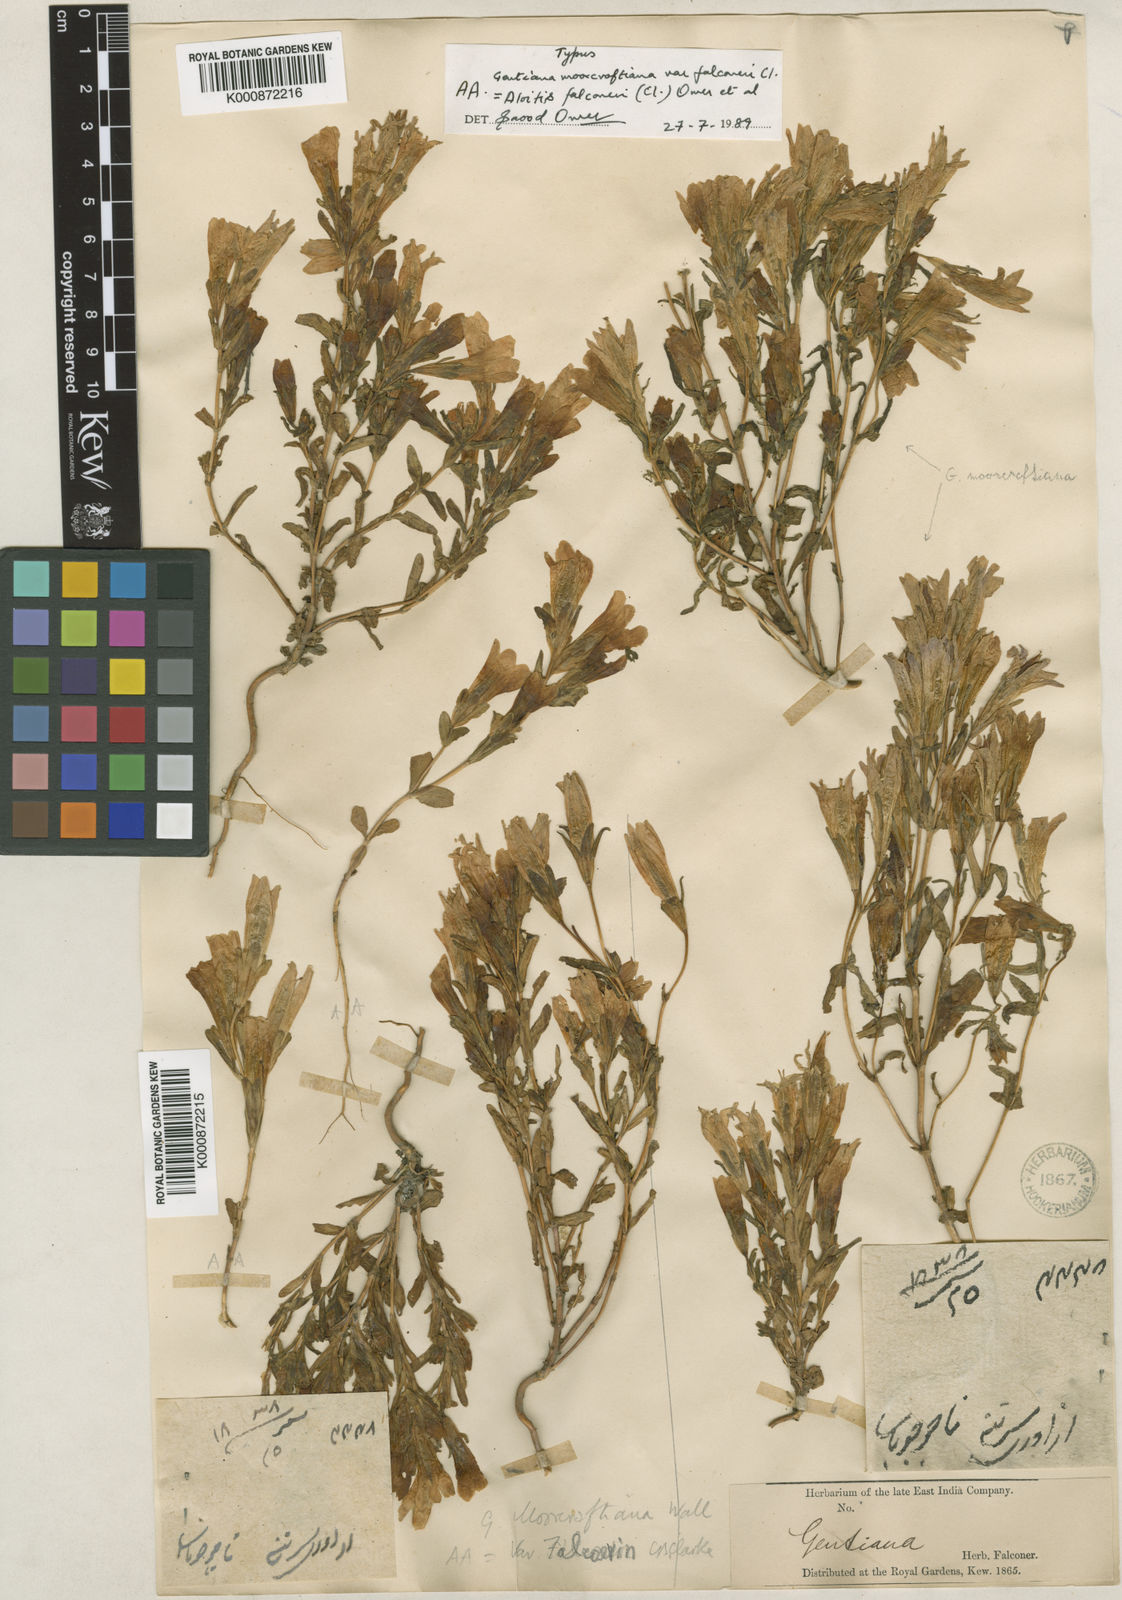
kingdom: Plantae
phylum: Tracheophyta
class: Magnoliopsida
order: Gentianales
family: Gentianaceae
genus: Gentianella
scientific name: Gentianella moorcroftiana
